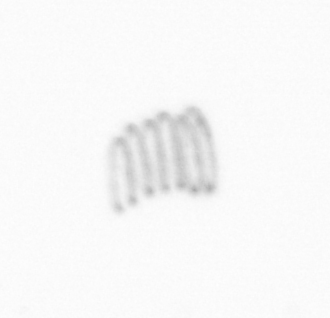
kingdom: Chromista
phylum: Ochrophyta
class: Bacillariophyceae
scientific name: Bacillariophyceae
